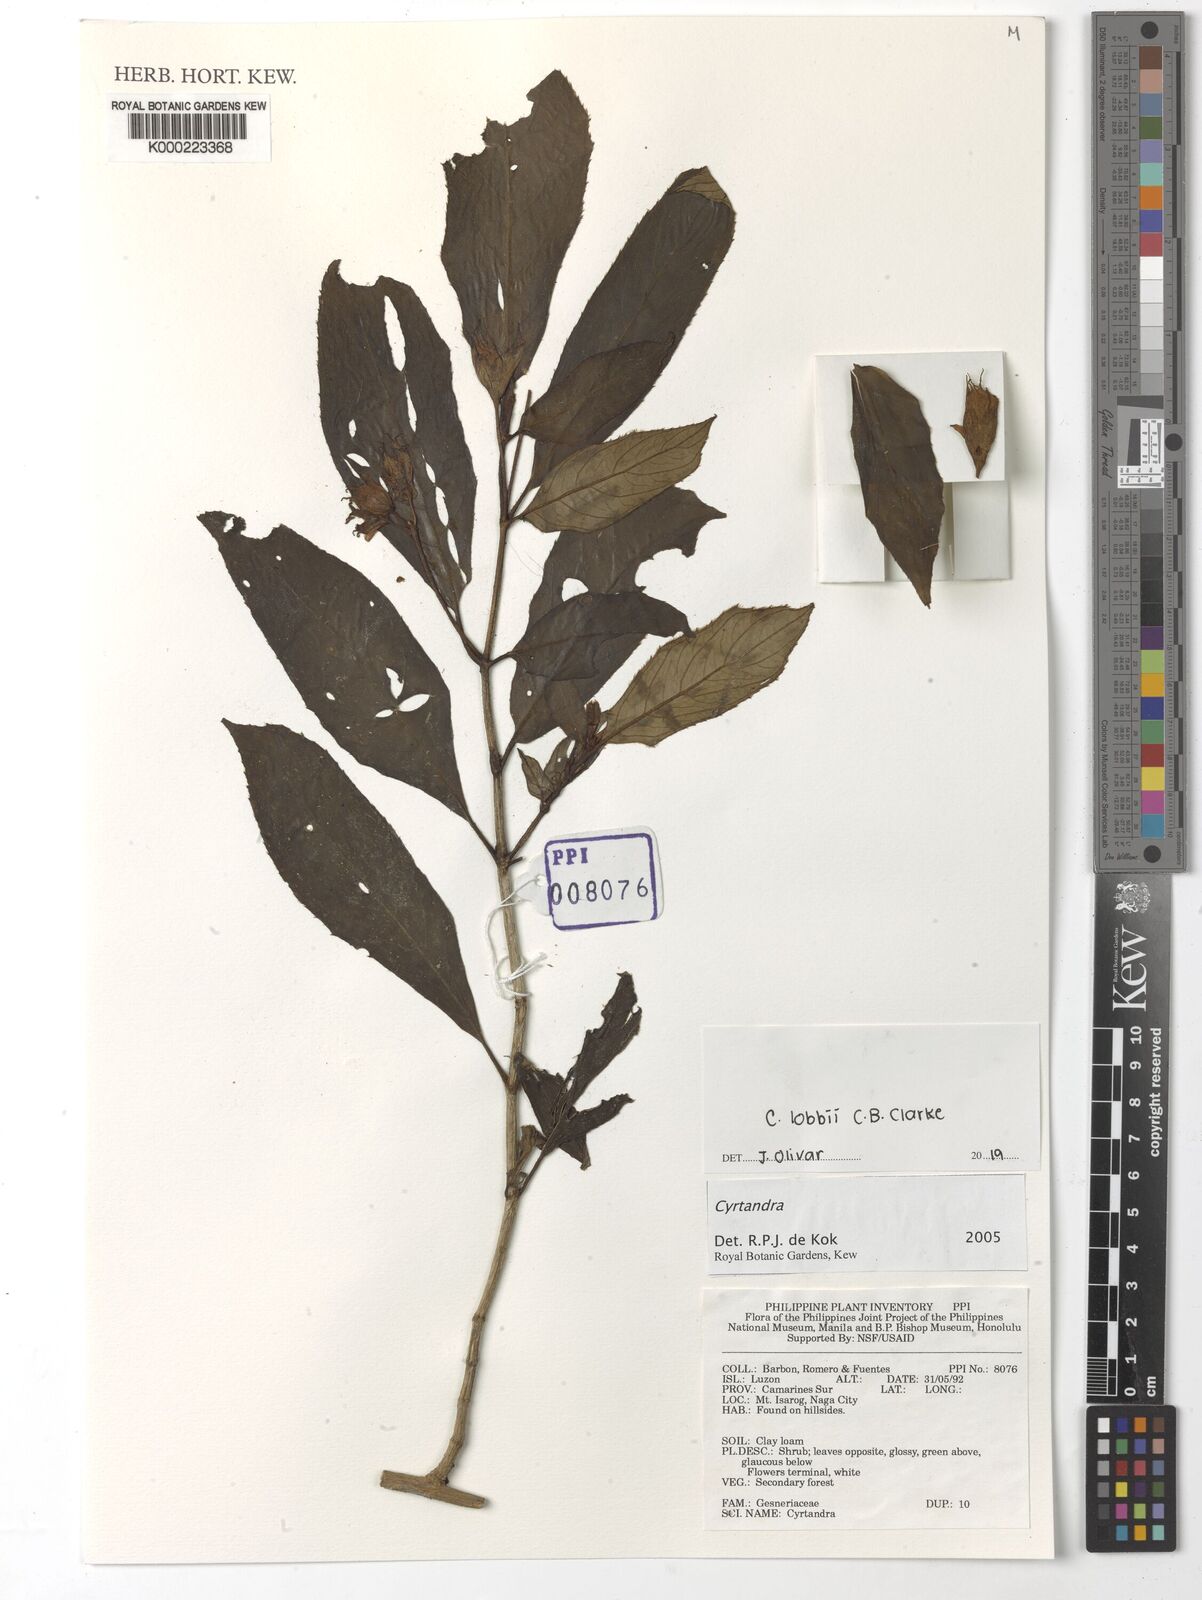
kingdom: Plantae
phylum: Tracheophyta
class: Magnoliopsida
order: Lamiales
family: Gesneriaceae
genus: Cyrtandra
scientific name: Cyrtandra
